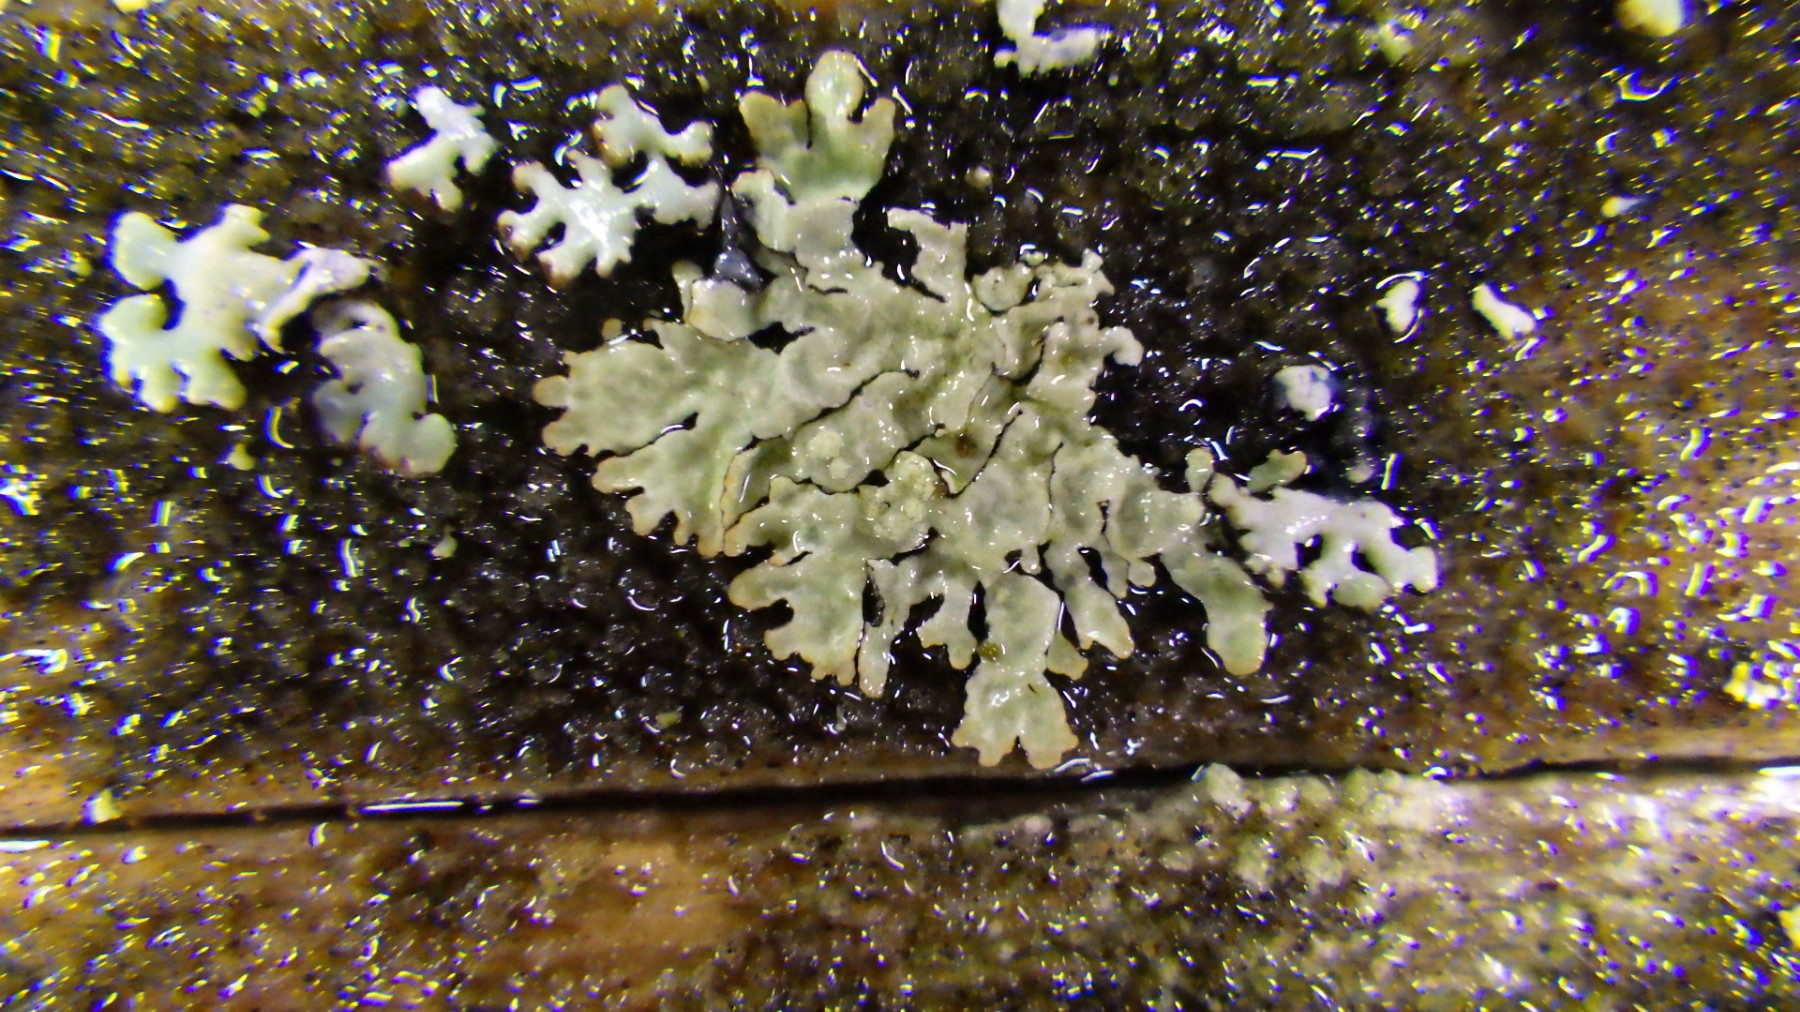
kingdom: Fungi
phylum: Ascomycota
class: Lecanoromycetes
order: Lecanorales
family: Parmeliaceae
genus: Parmeliopsis
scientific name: Parmeliopsis ambigua
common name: gul stolpelav
